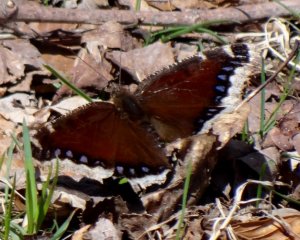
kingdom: Animalia
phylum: Arthropoda
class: Insecta
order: Lepidoptera
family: Nymphalidae
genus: Nymphalis
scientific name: Nymphalis antiopa
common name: Mourning Cloak
